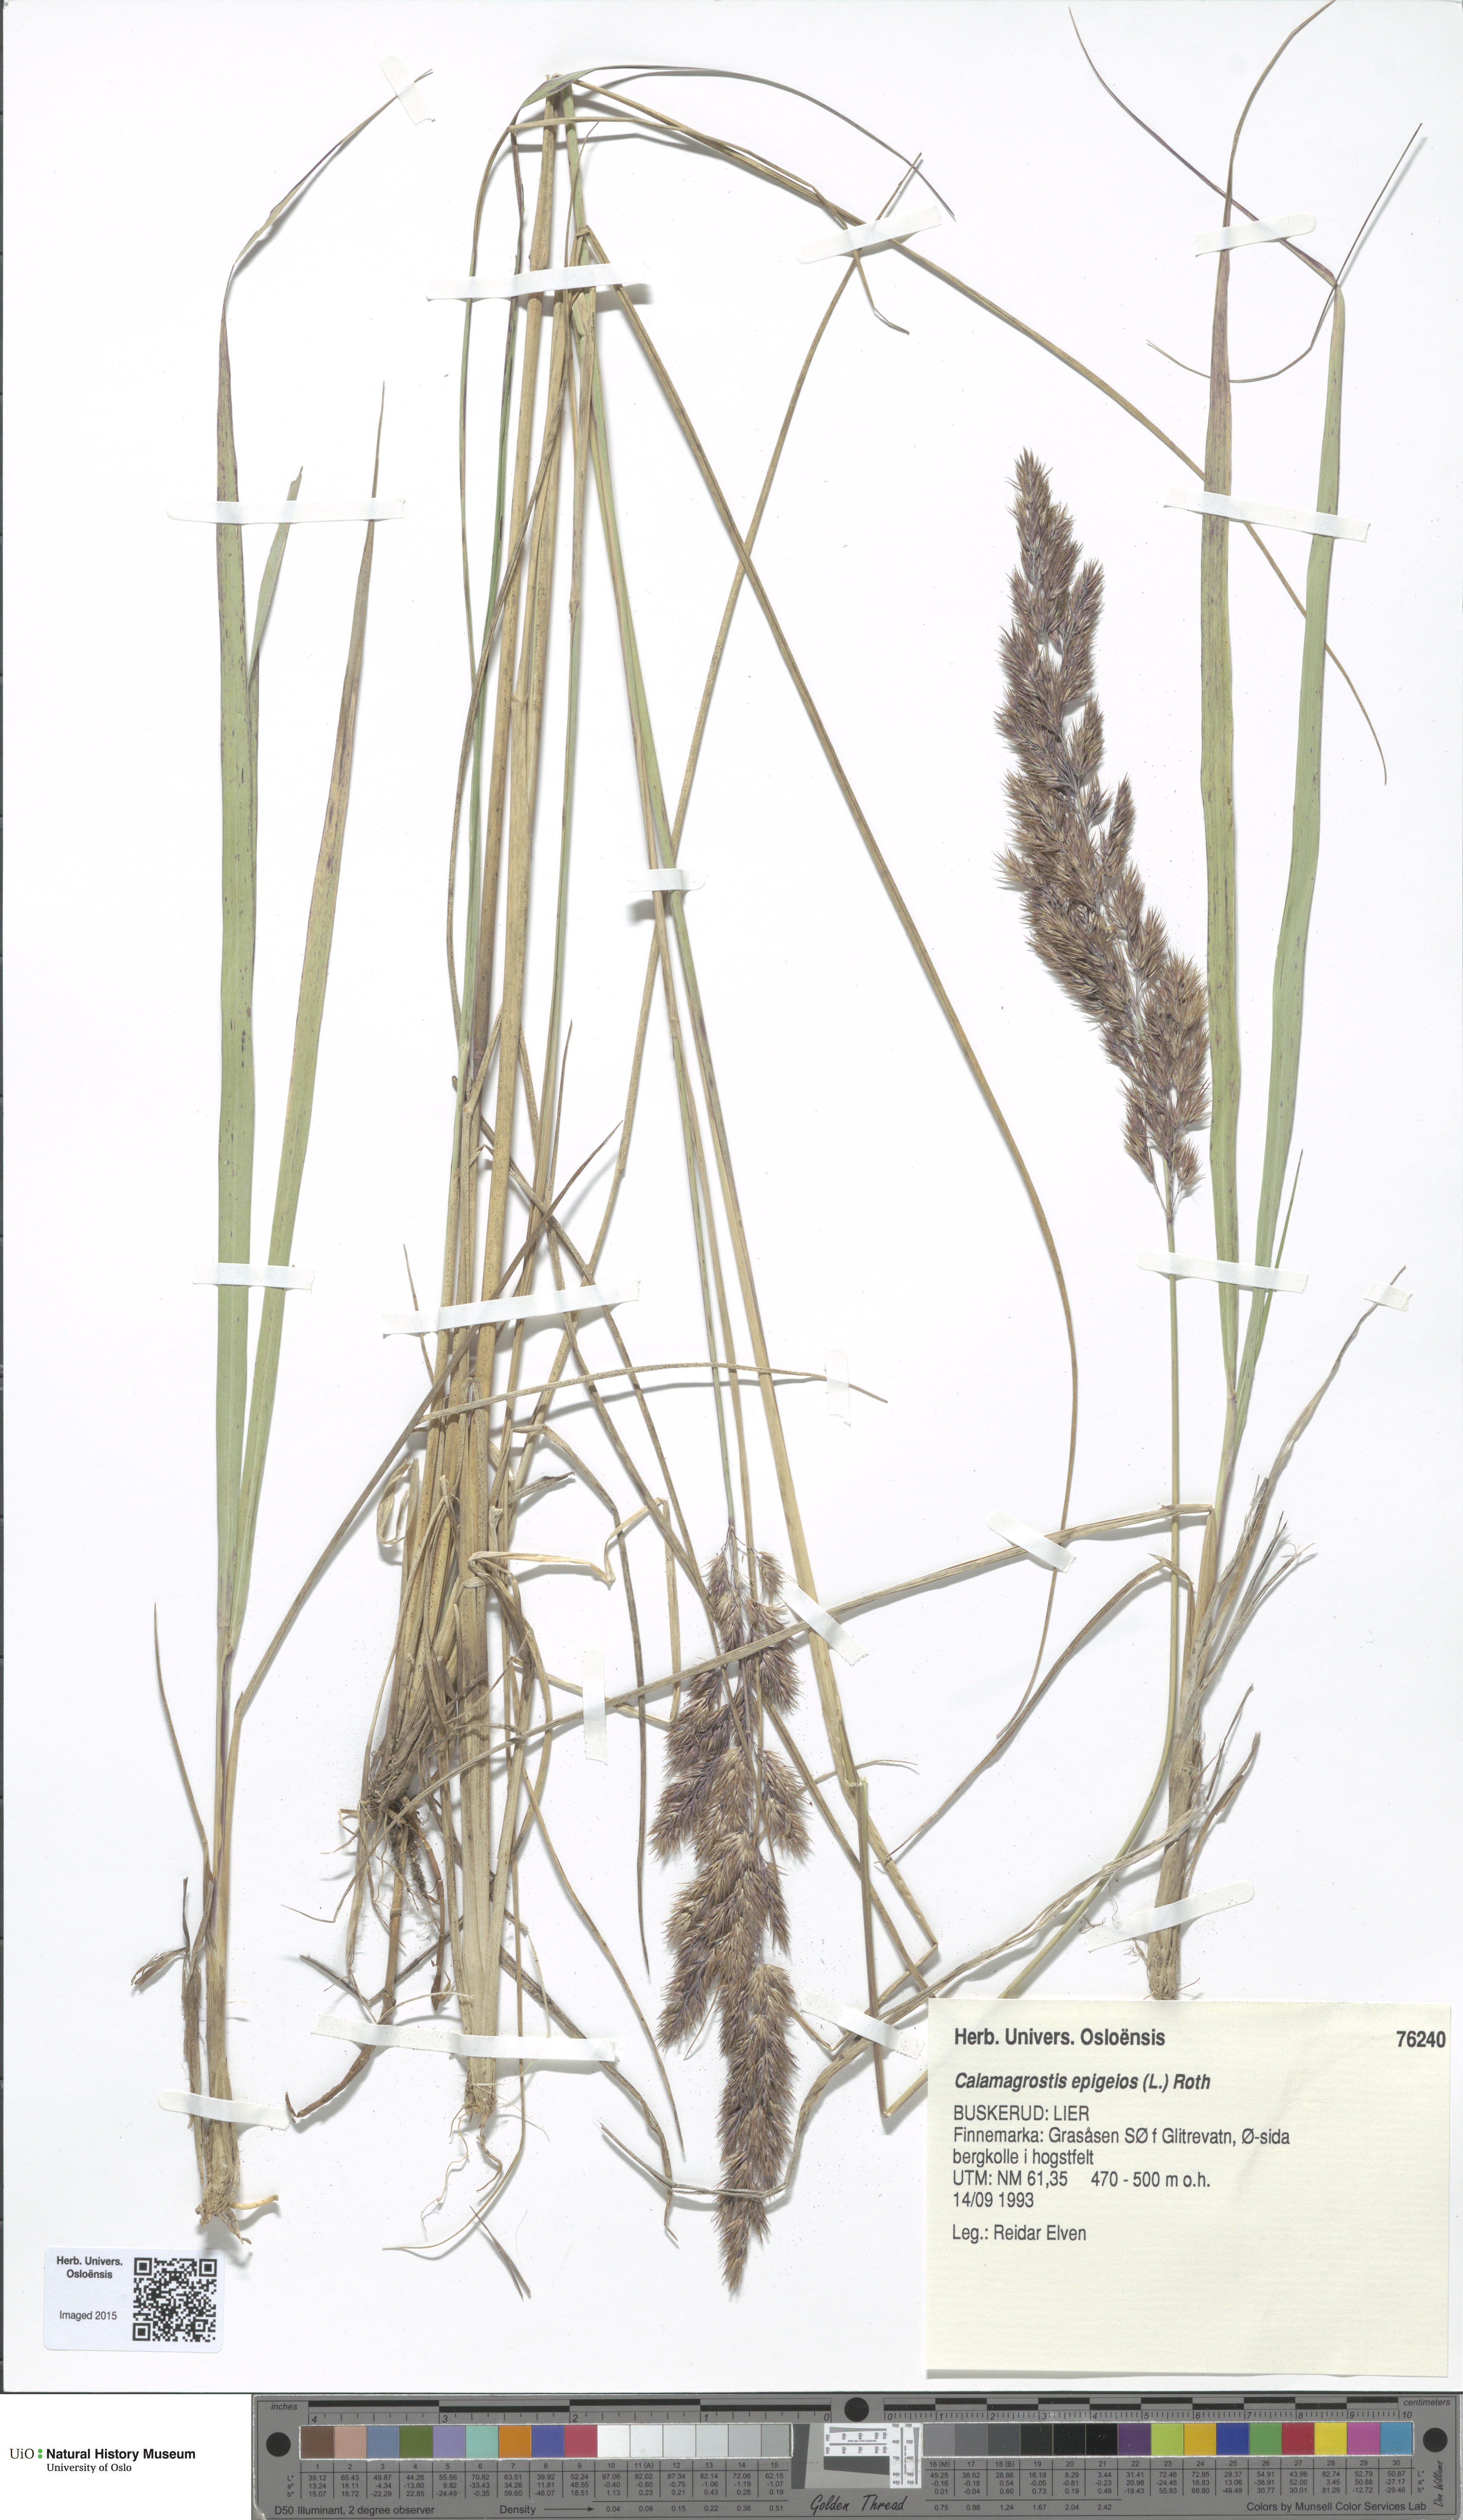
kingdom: Plantae
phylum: Tracheophyta
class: Liliopsida
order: Poales
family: Poaceae
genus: Calamagrostis
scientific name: Calamagrostis epigejos
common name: Wood small-reed
